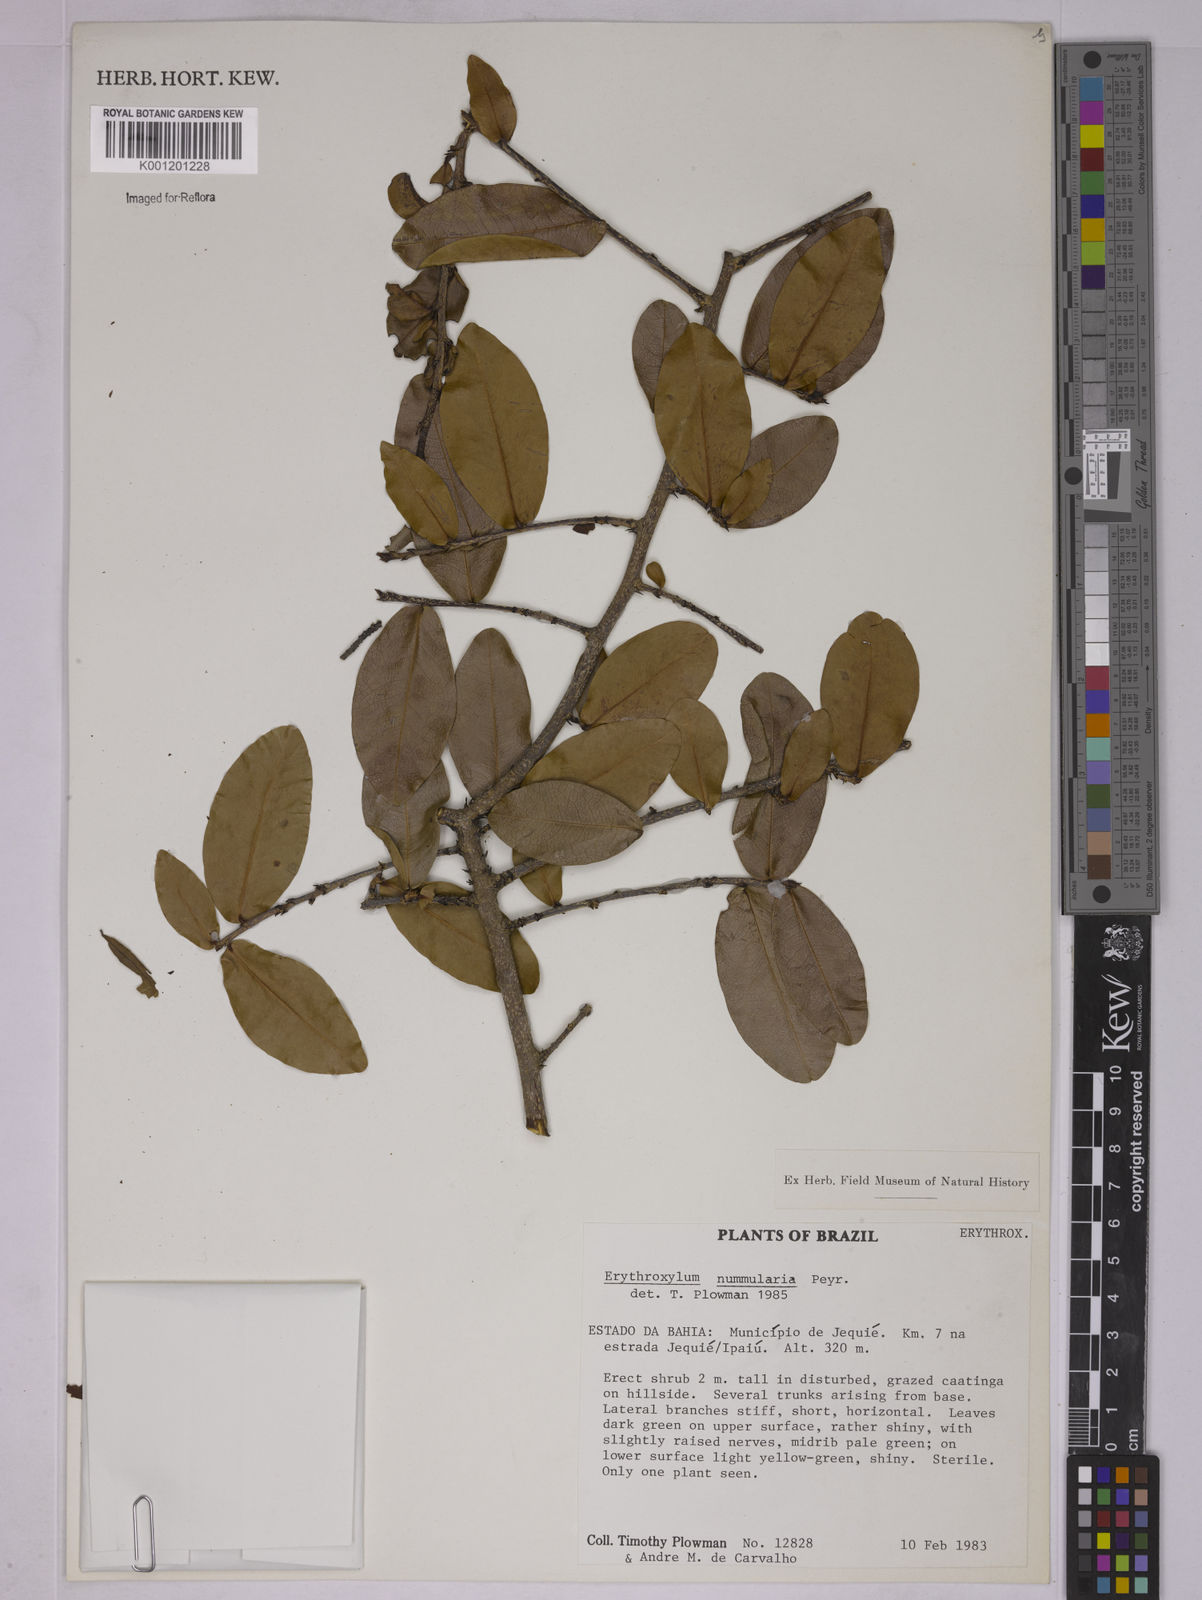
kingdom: Plantae
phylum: Tracheophyta
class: Magnoliopsida
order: Malpighiales
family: Erythroxylaceae
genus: Erythroxylum
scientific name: Erythroxylum nummularia
